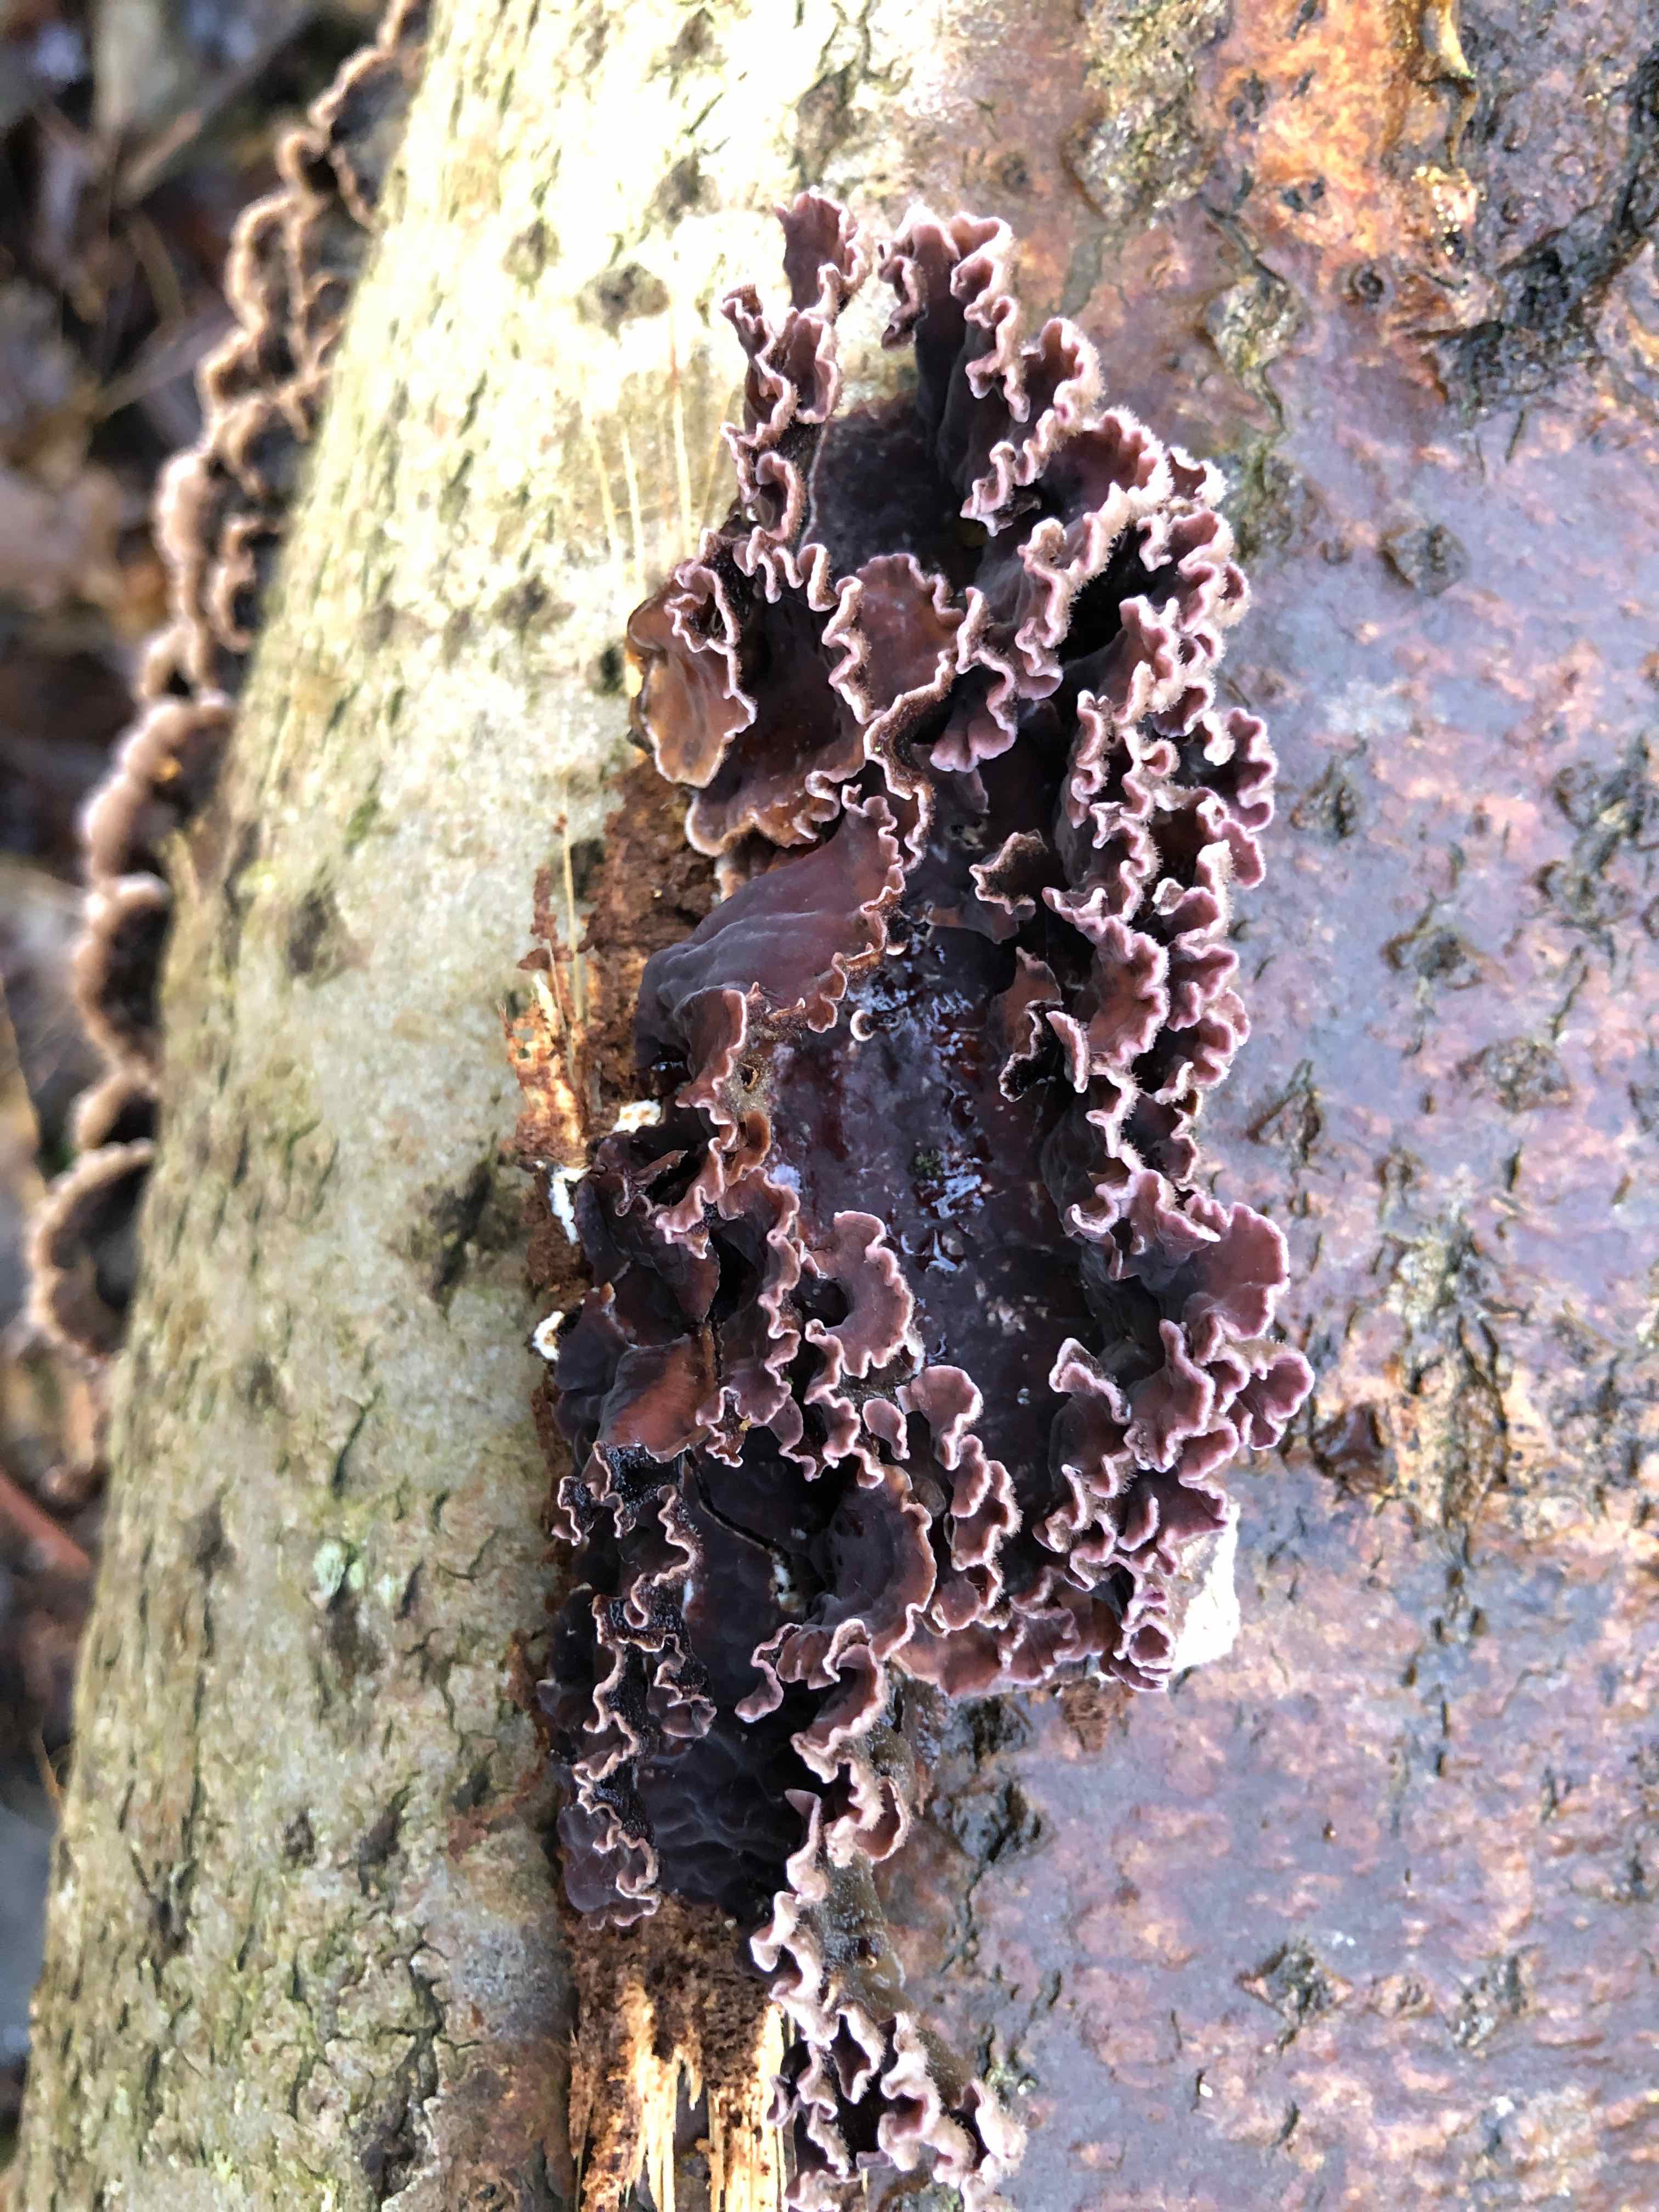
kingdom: Fungi
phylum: Basidiomycota
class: Agaricomycetes
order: Agaricales
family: Cyphellaceae
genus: Chondrostereum
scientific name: Chondrostereum purpureum
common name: purpurlædersvamp
